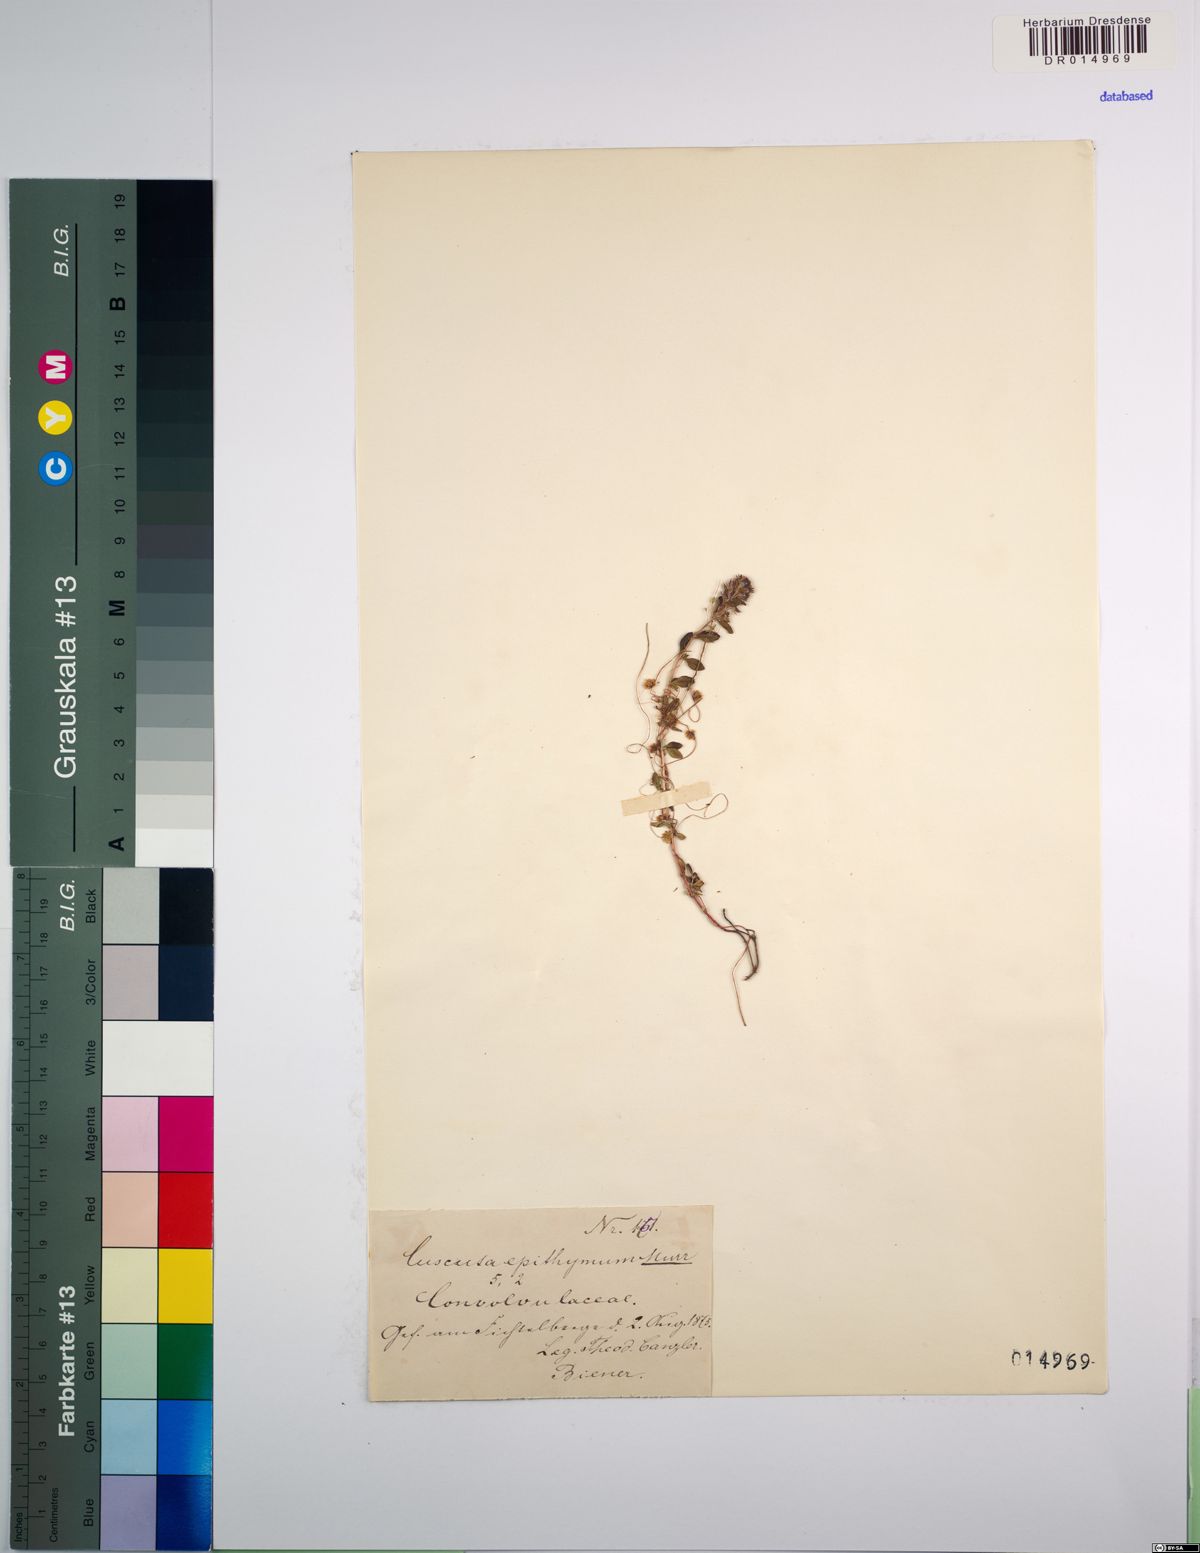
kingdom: Plantae
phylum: Tracheophyta
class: Magnoliopsida
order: Solanales
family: Convolvulaceae
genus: Cuscuta
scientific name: Cuscuta epithymum
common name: Clover dodder
